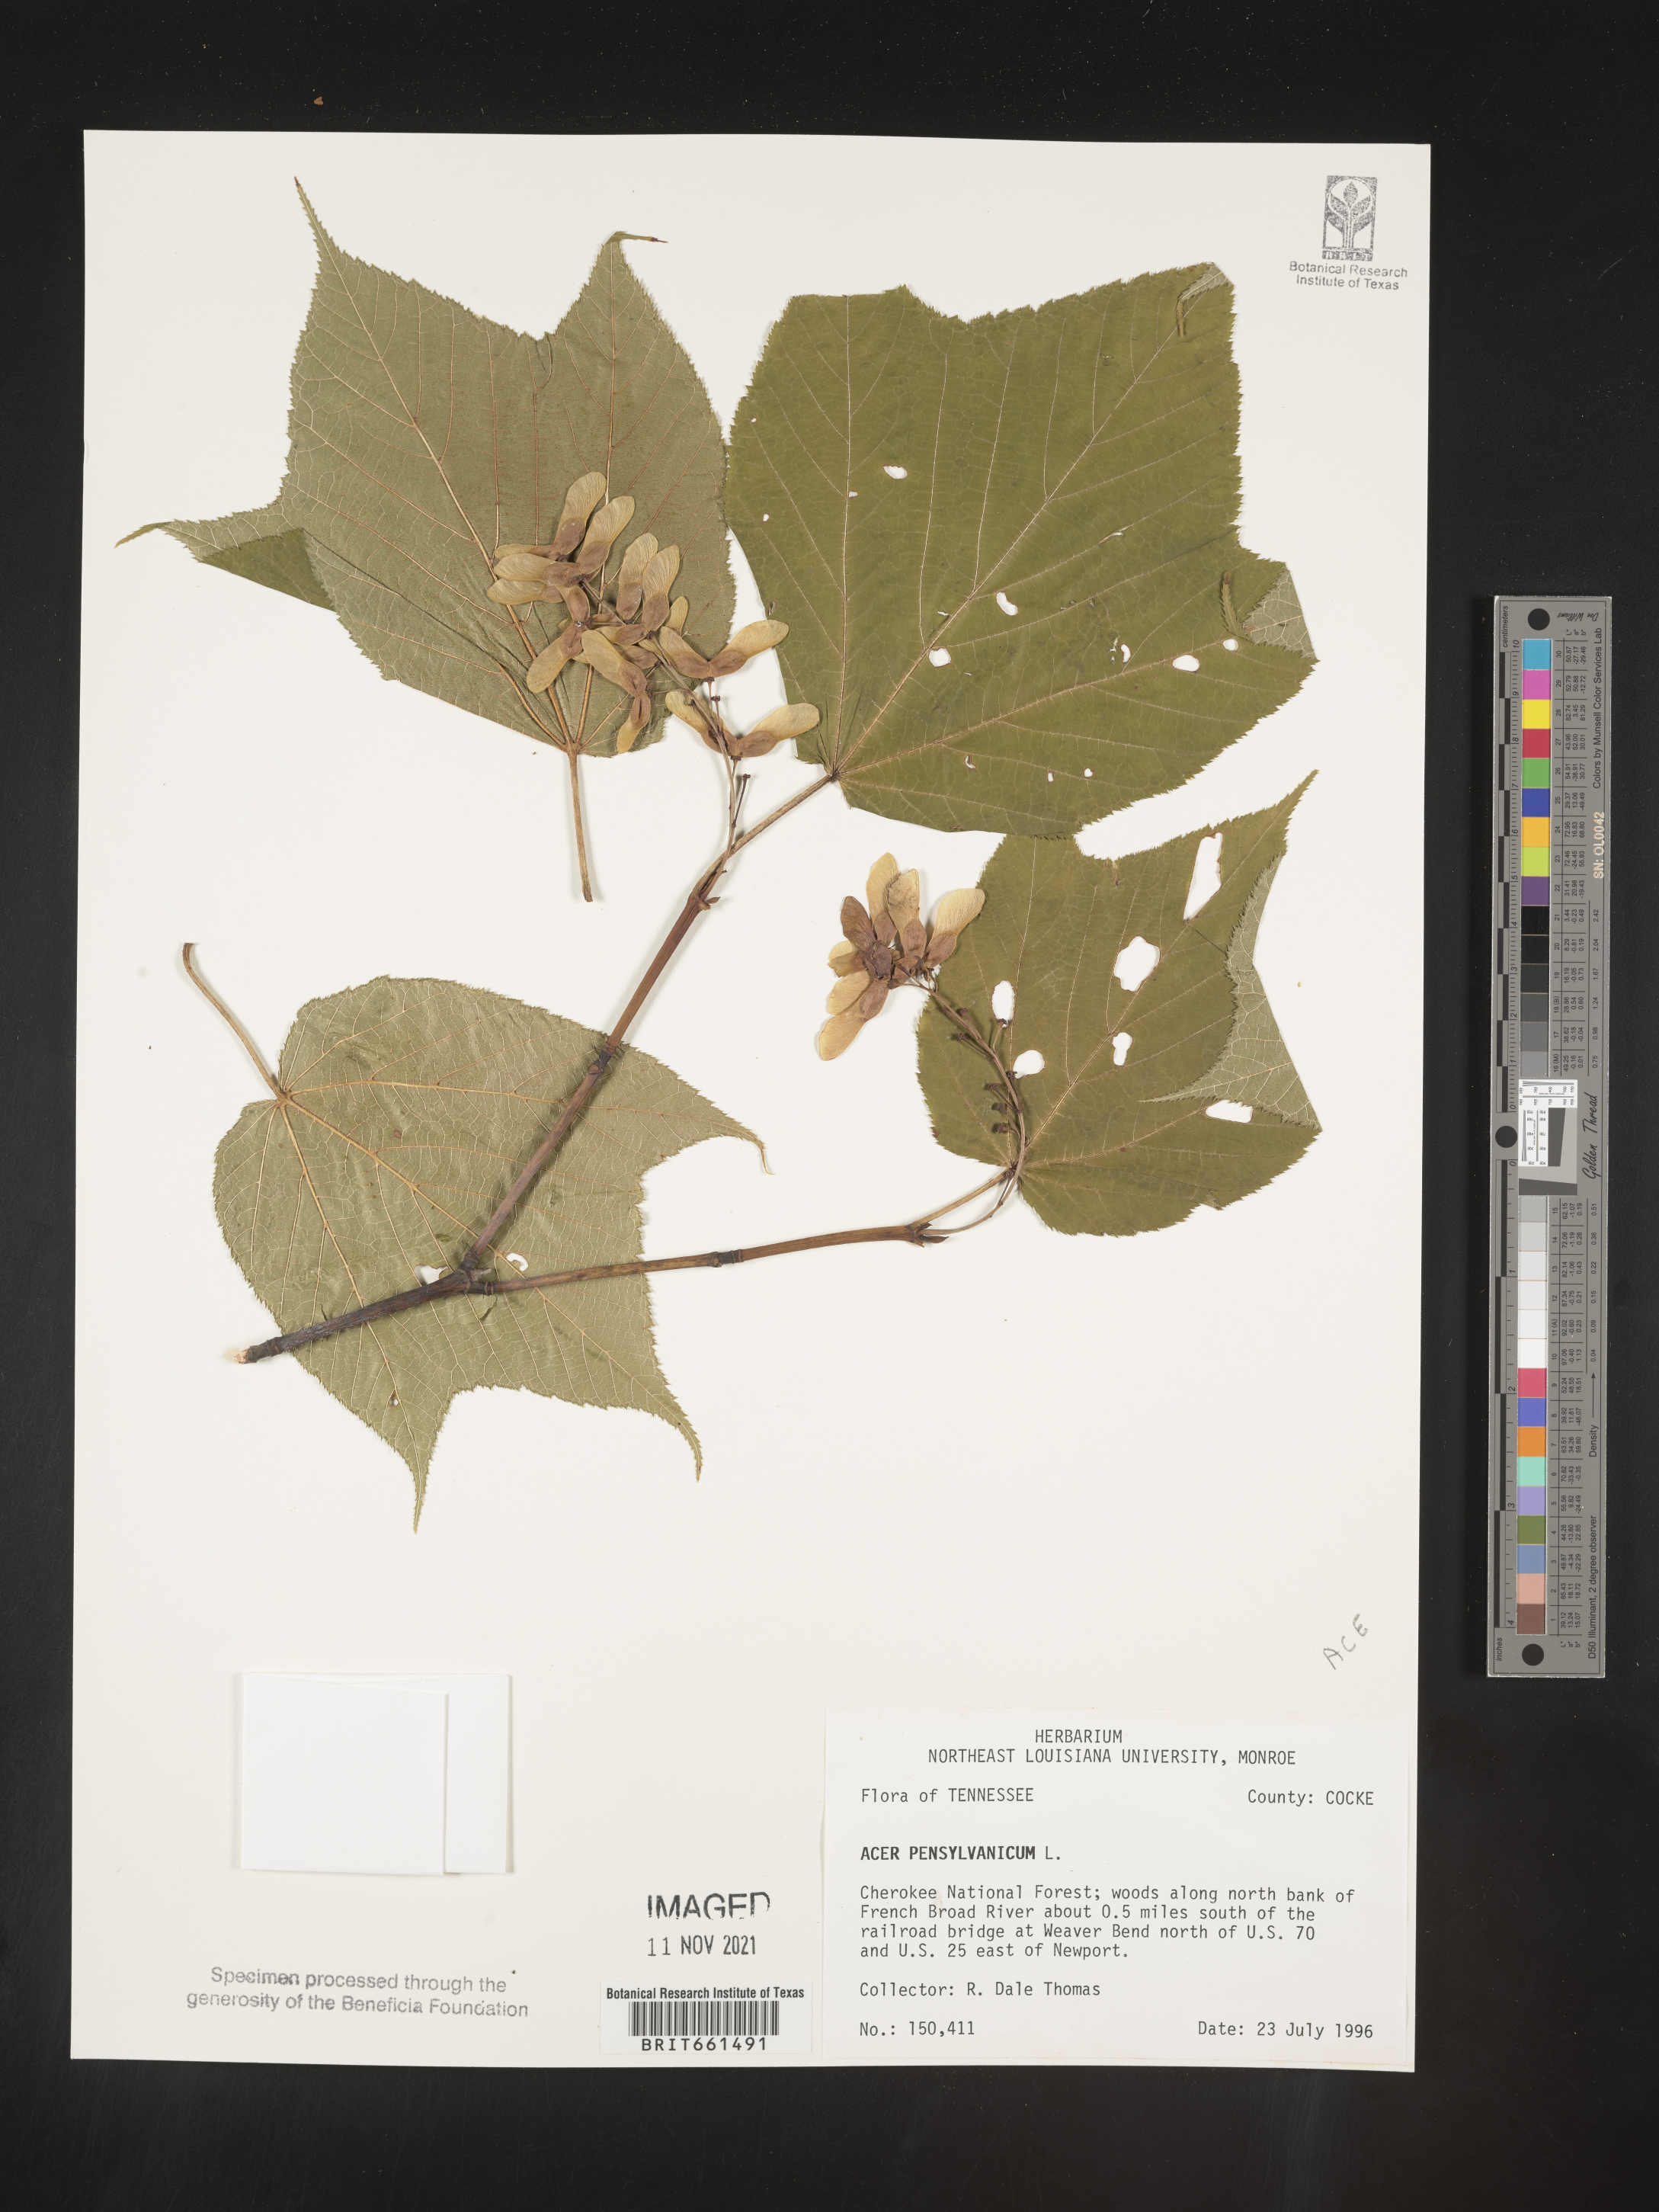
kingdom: Plantae
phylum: Tracheophyta
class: Magnoliopsida
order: Sapindales
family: Sapindaceae
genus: Acer
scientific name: Acer pensylvanicum
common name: Moosewood
